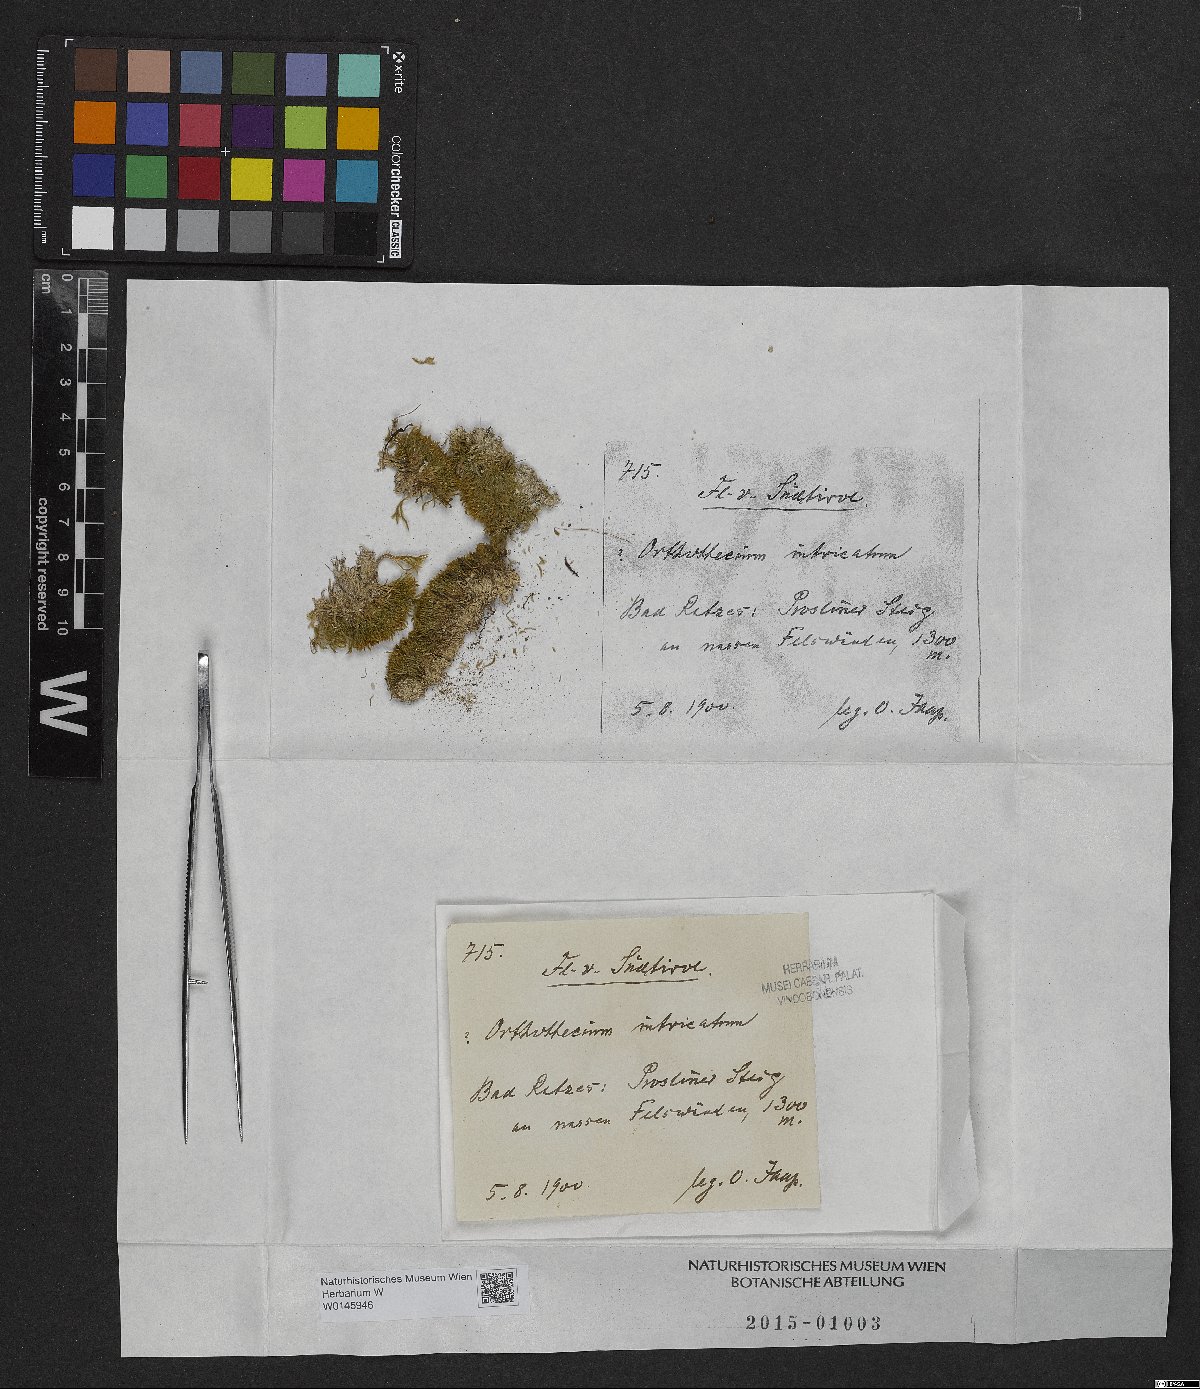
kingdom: Plantae
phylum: Bryophyta
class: Bryopsida
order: Hypnales
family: Plagiotheciaceae
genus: Orthothecium
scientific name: Orthothecium intricatum
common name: Fine-leaved erect-capsule moss
